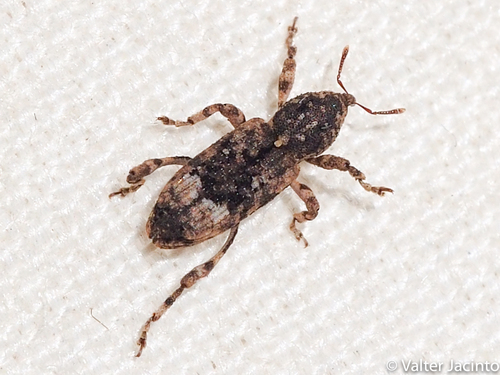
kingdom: Animalia
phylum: Arthropoda
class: Insecta
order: Coleoptera
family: Curculionidae
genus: Camptorhinus
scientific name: Camptorhinus simplex
